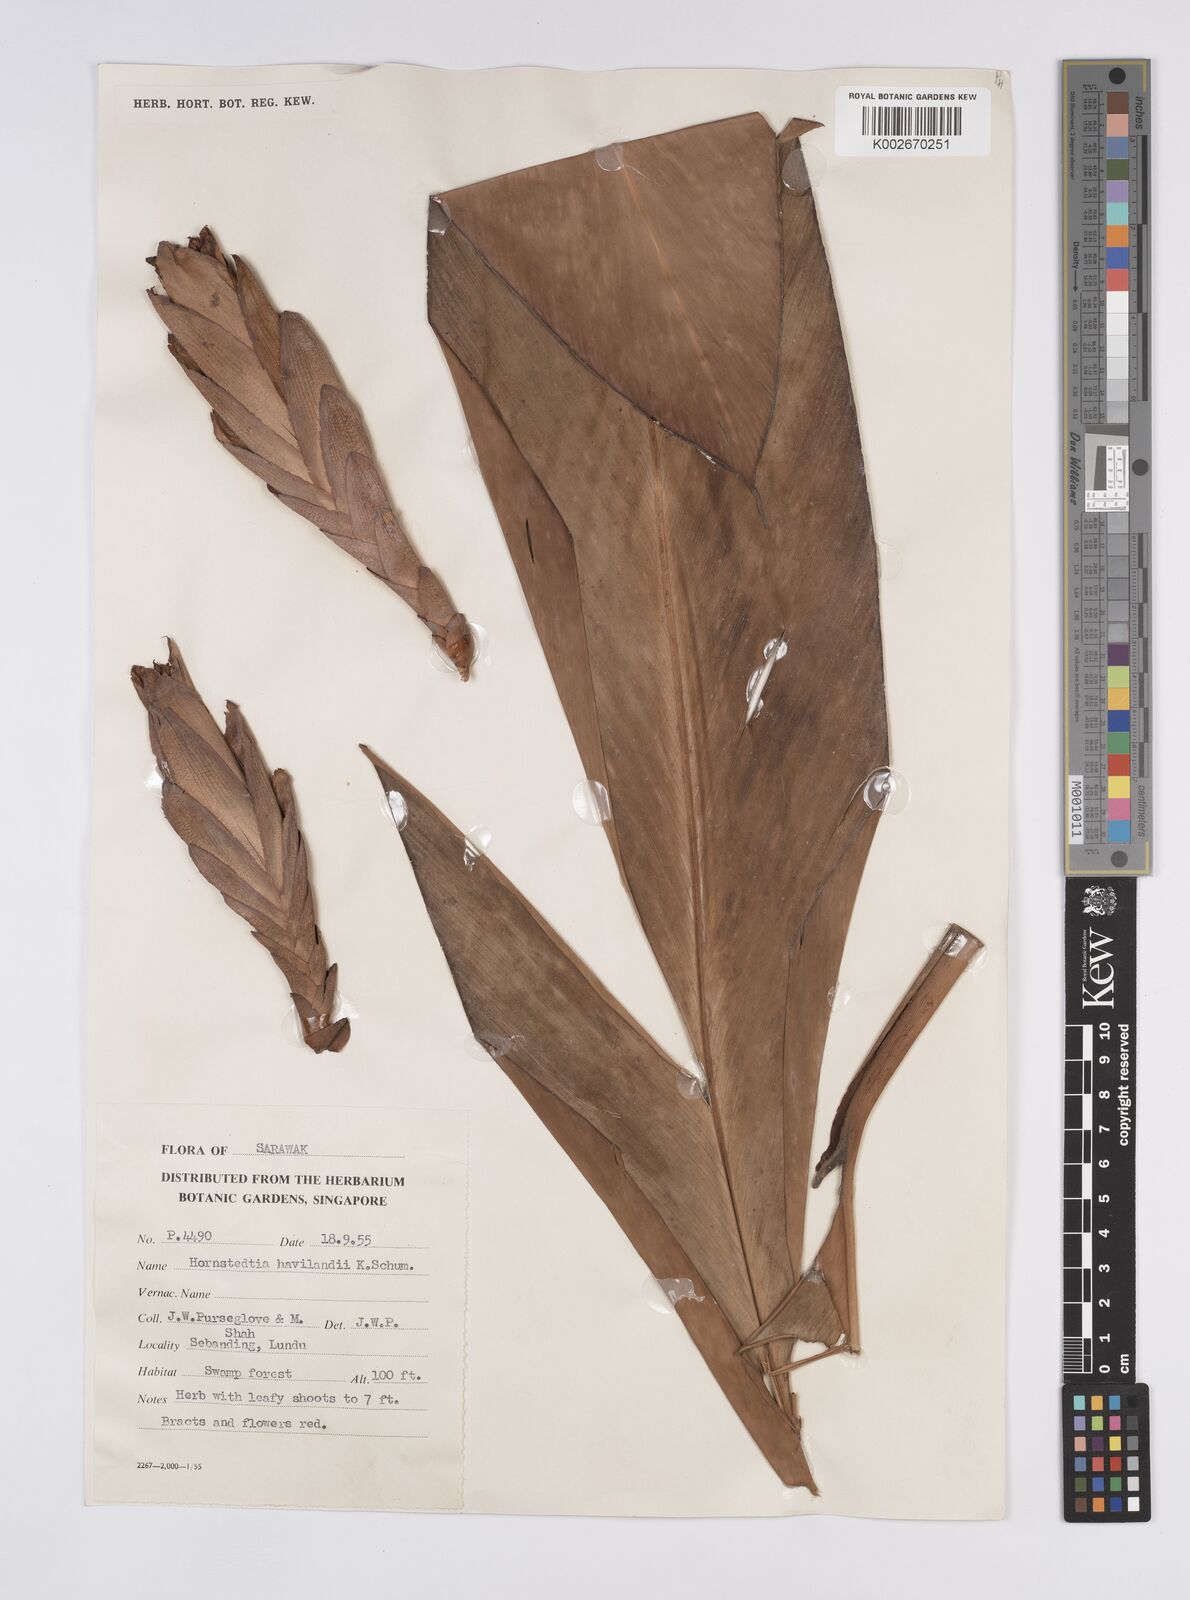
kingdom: Plantae
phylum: Tracheophyta
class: Liliopsida
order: Zingiberales
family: Zingiberaceae
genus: Hornstedtia
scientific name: Hornstedtia reticulata
